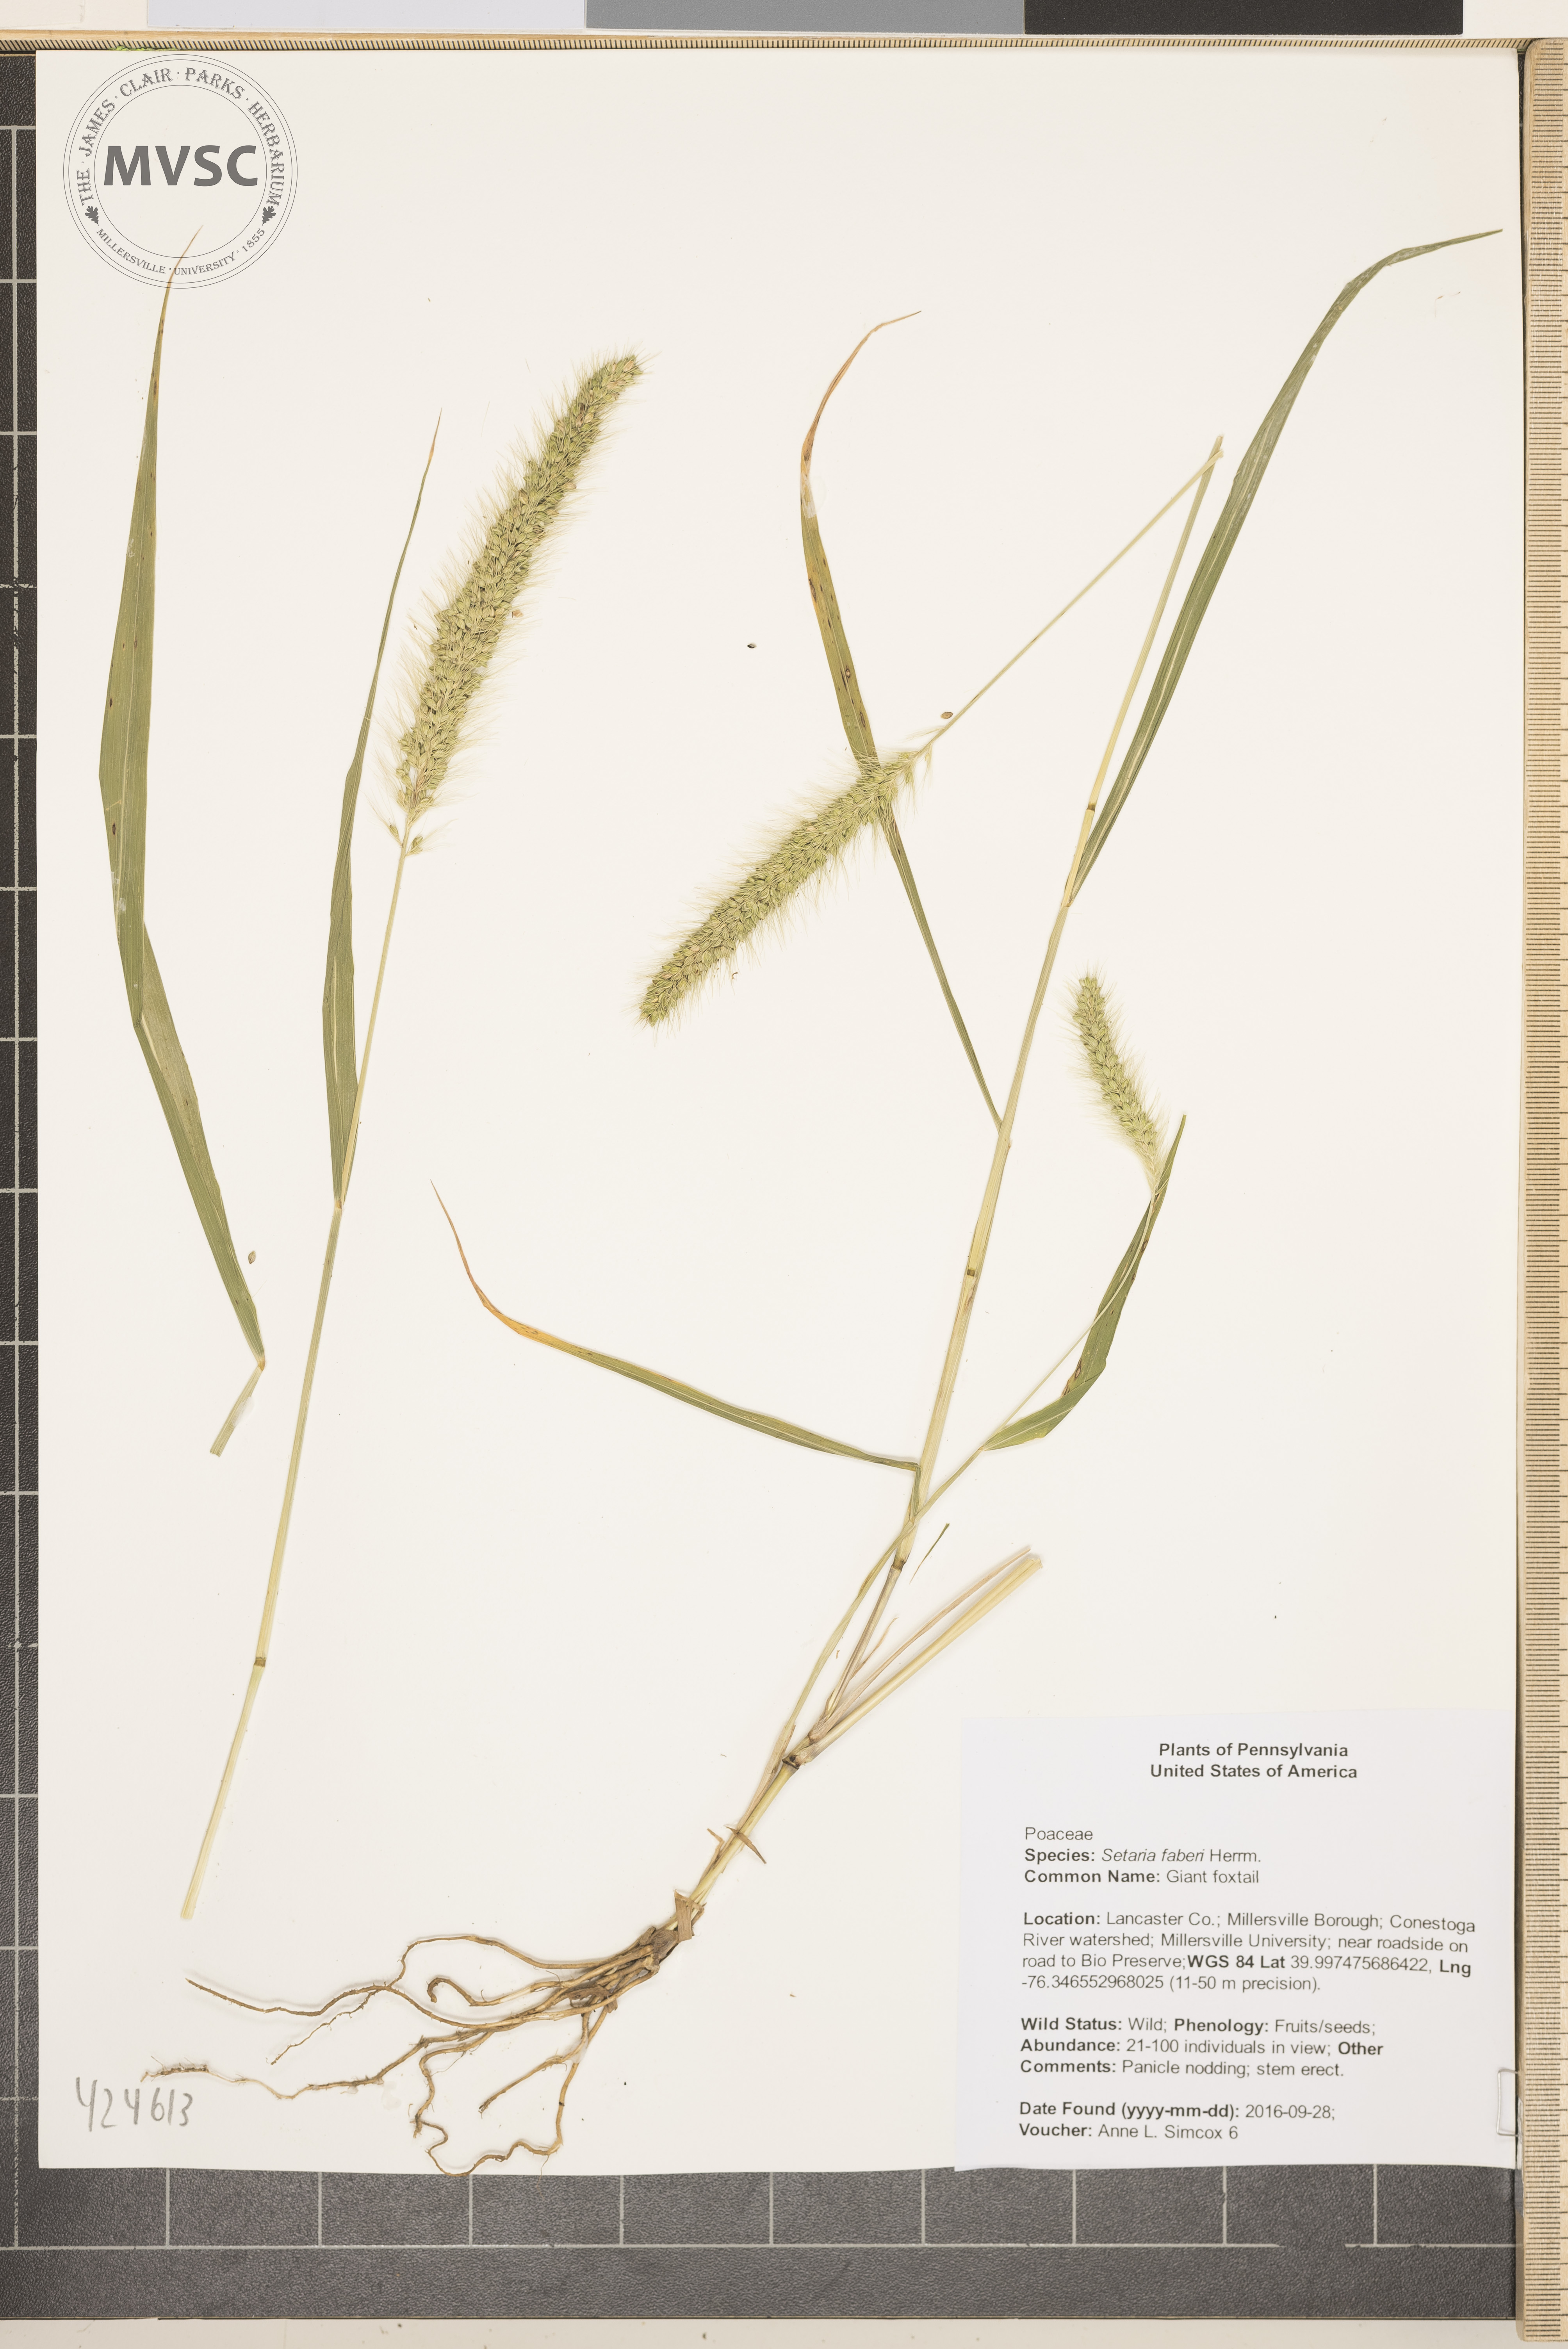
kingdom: Plantae
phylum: Tracheophyta
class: Liliopsida
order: Poales
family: Poaceae
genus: Setaria
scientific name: Setaria faberi
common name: Giant foxtail
